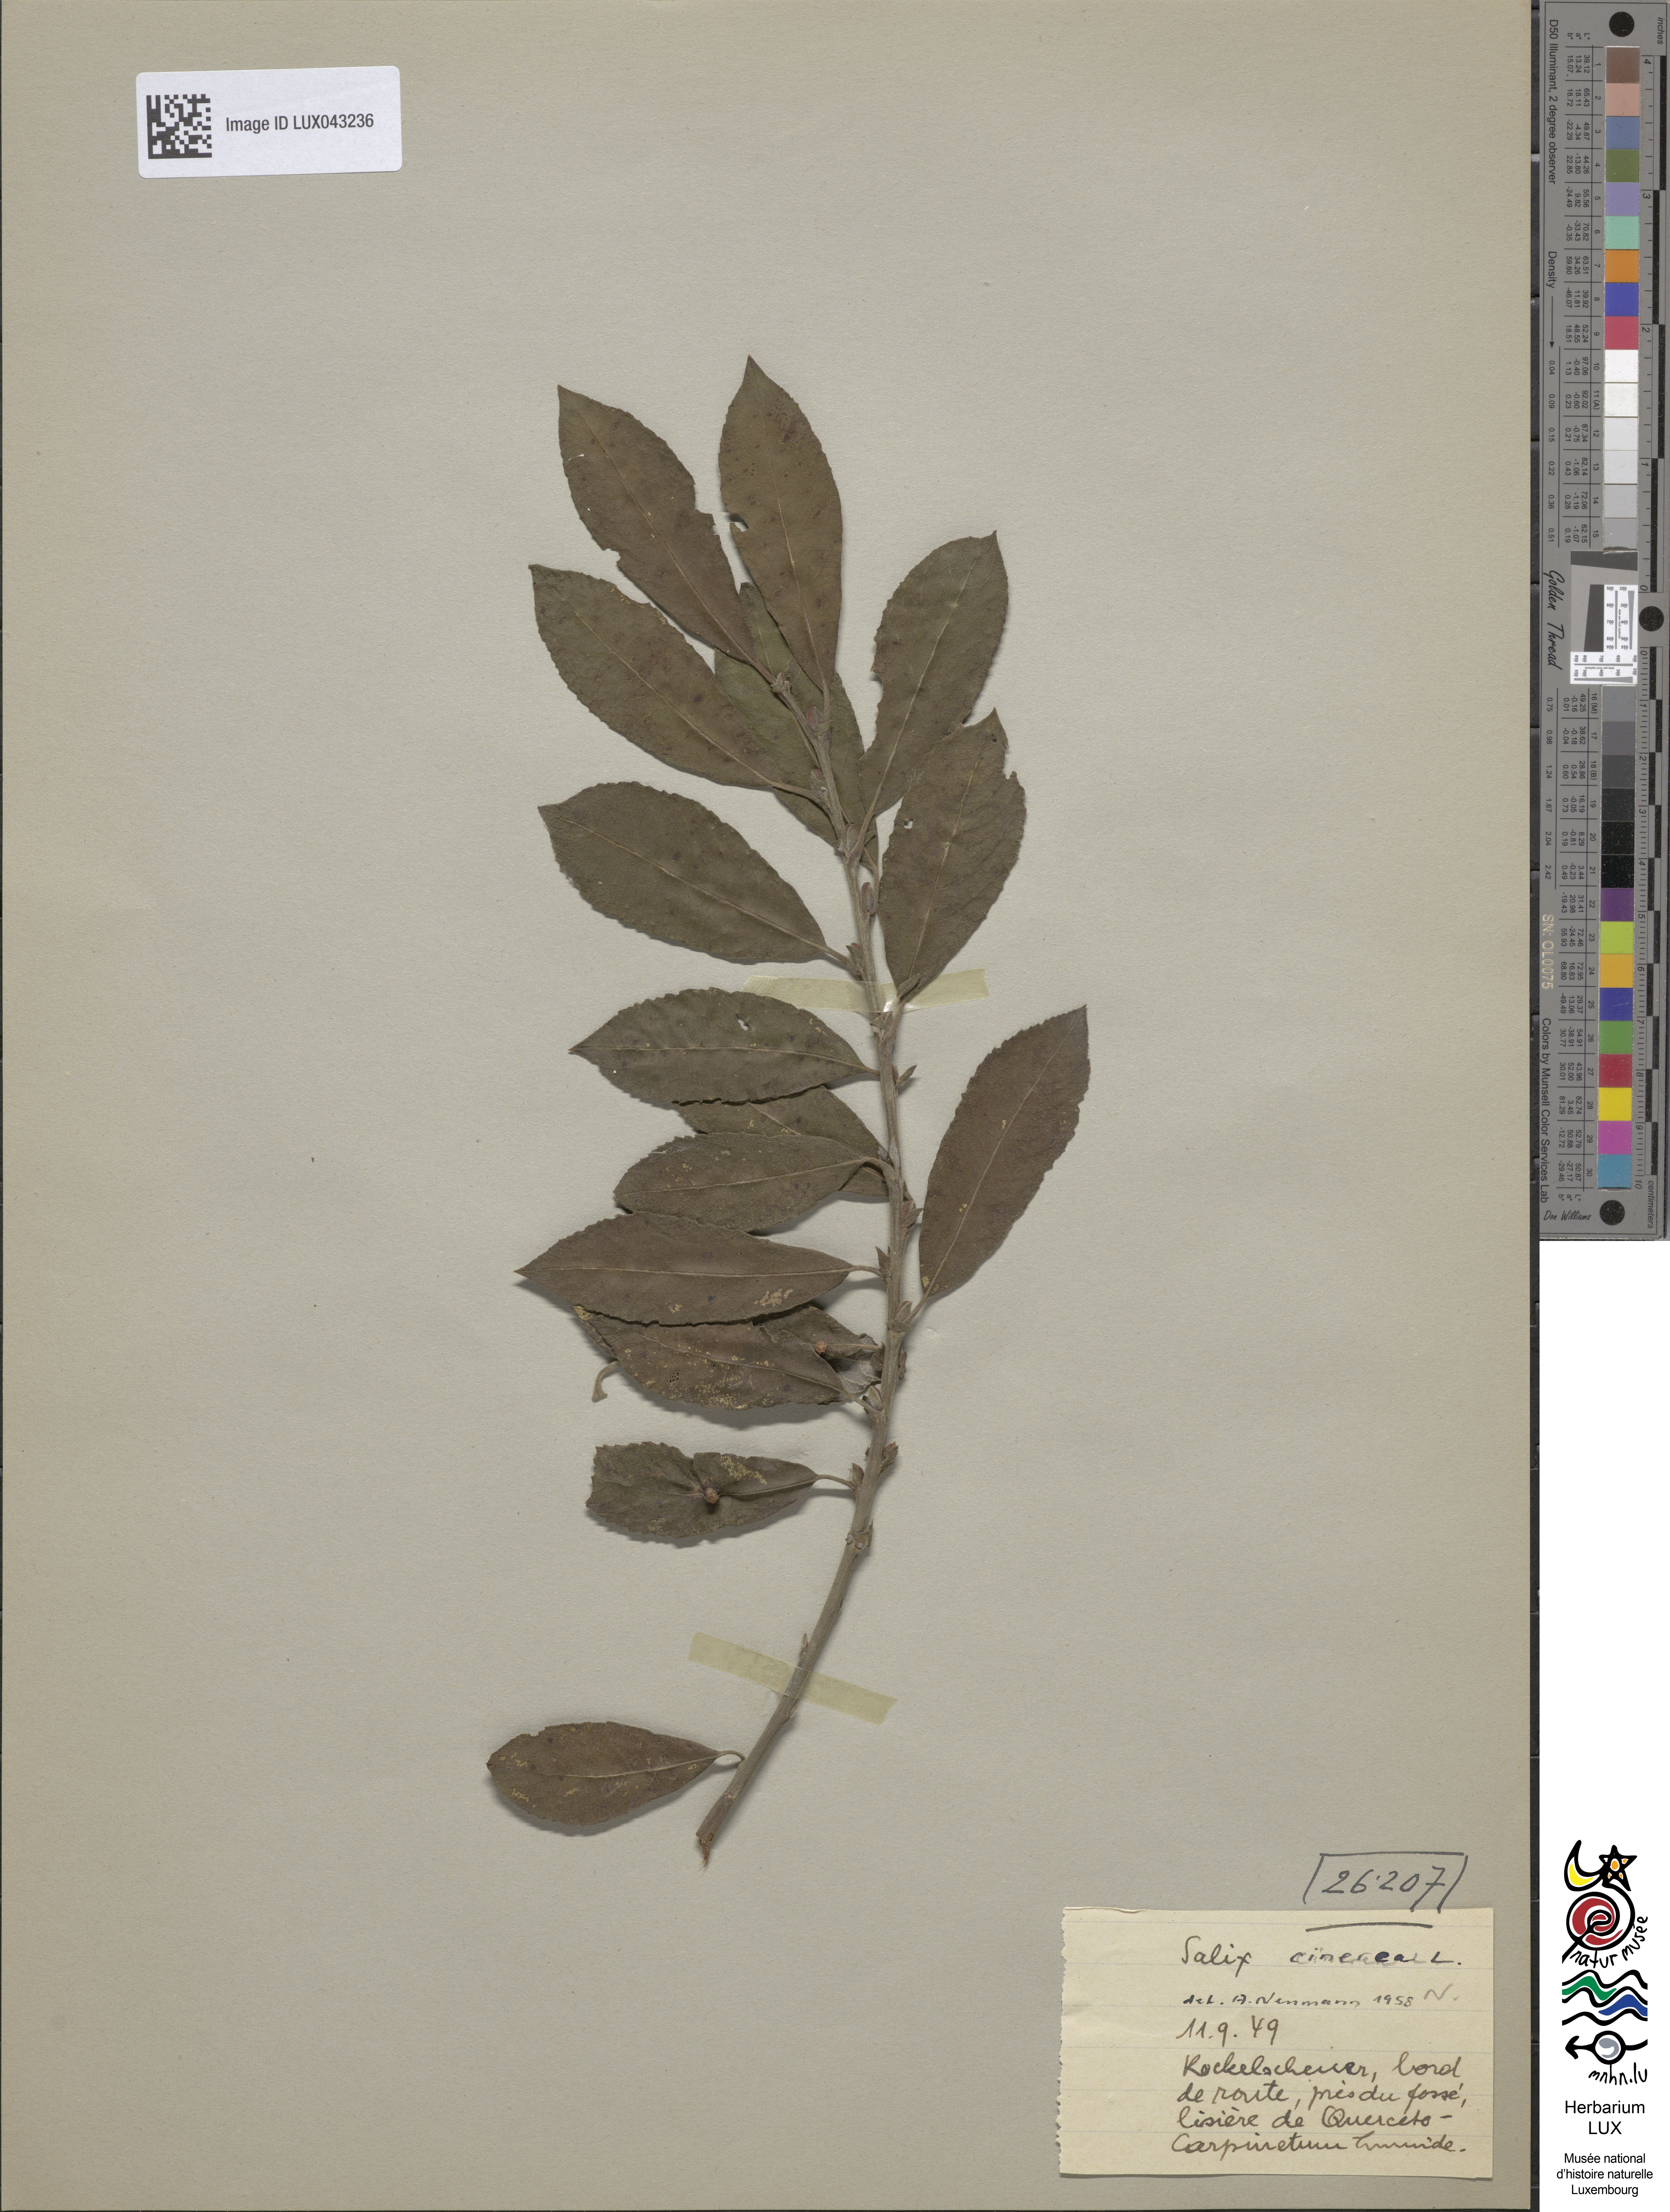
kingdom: Plantae
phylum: Tracheophyta
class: Magnoliopsida
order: Malpighiales
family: Salicaceae
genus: Salix
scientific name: Salix cinerea
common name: Common sallow
